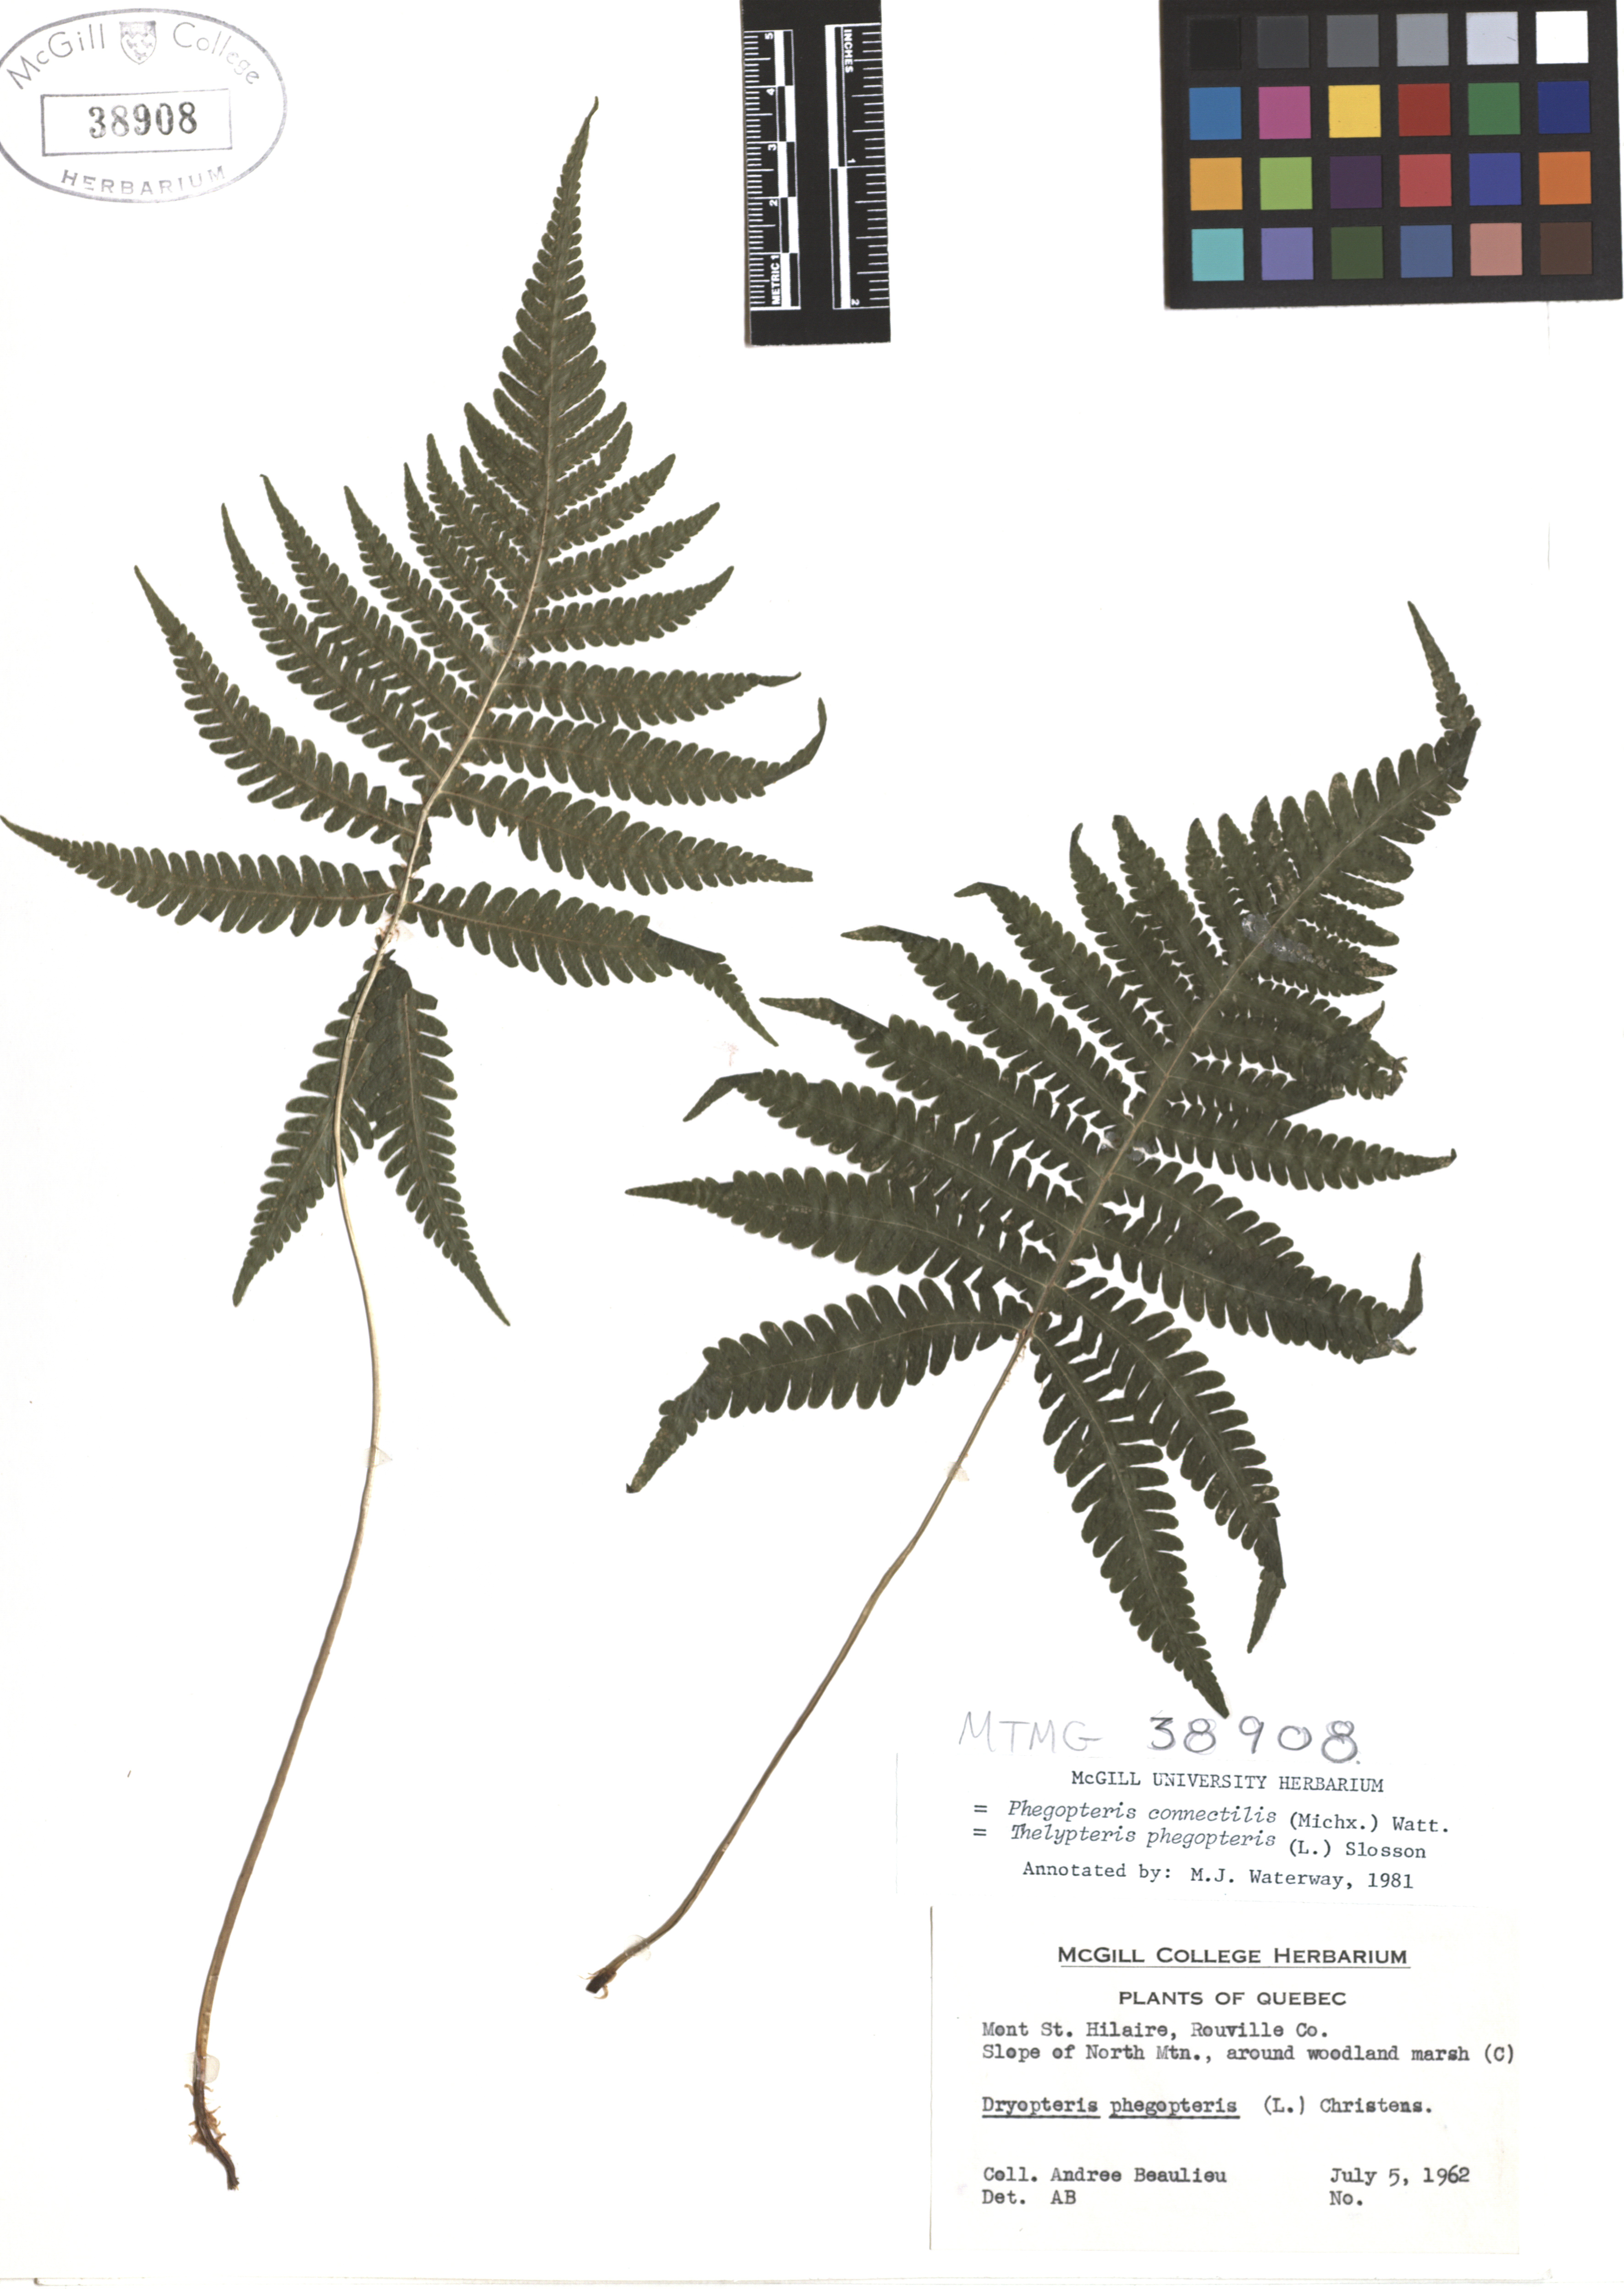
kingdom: Plantae
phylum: Tracheophyta
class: Polypodiopsida
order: Polypodiales
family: Thelypteridaceae
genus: Phegopteris
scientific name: Phegopteris connectilis
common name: Beech fern
